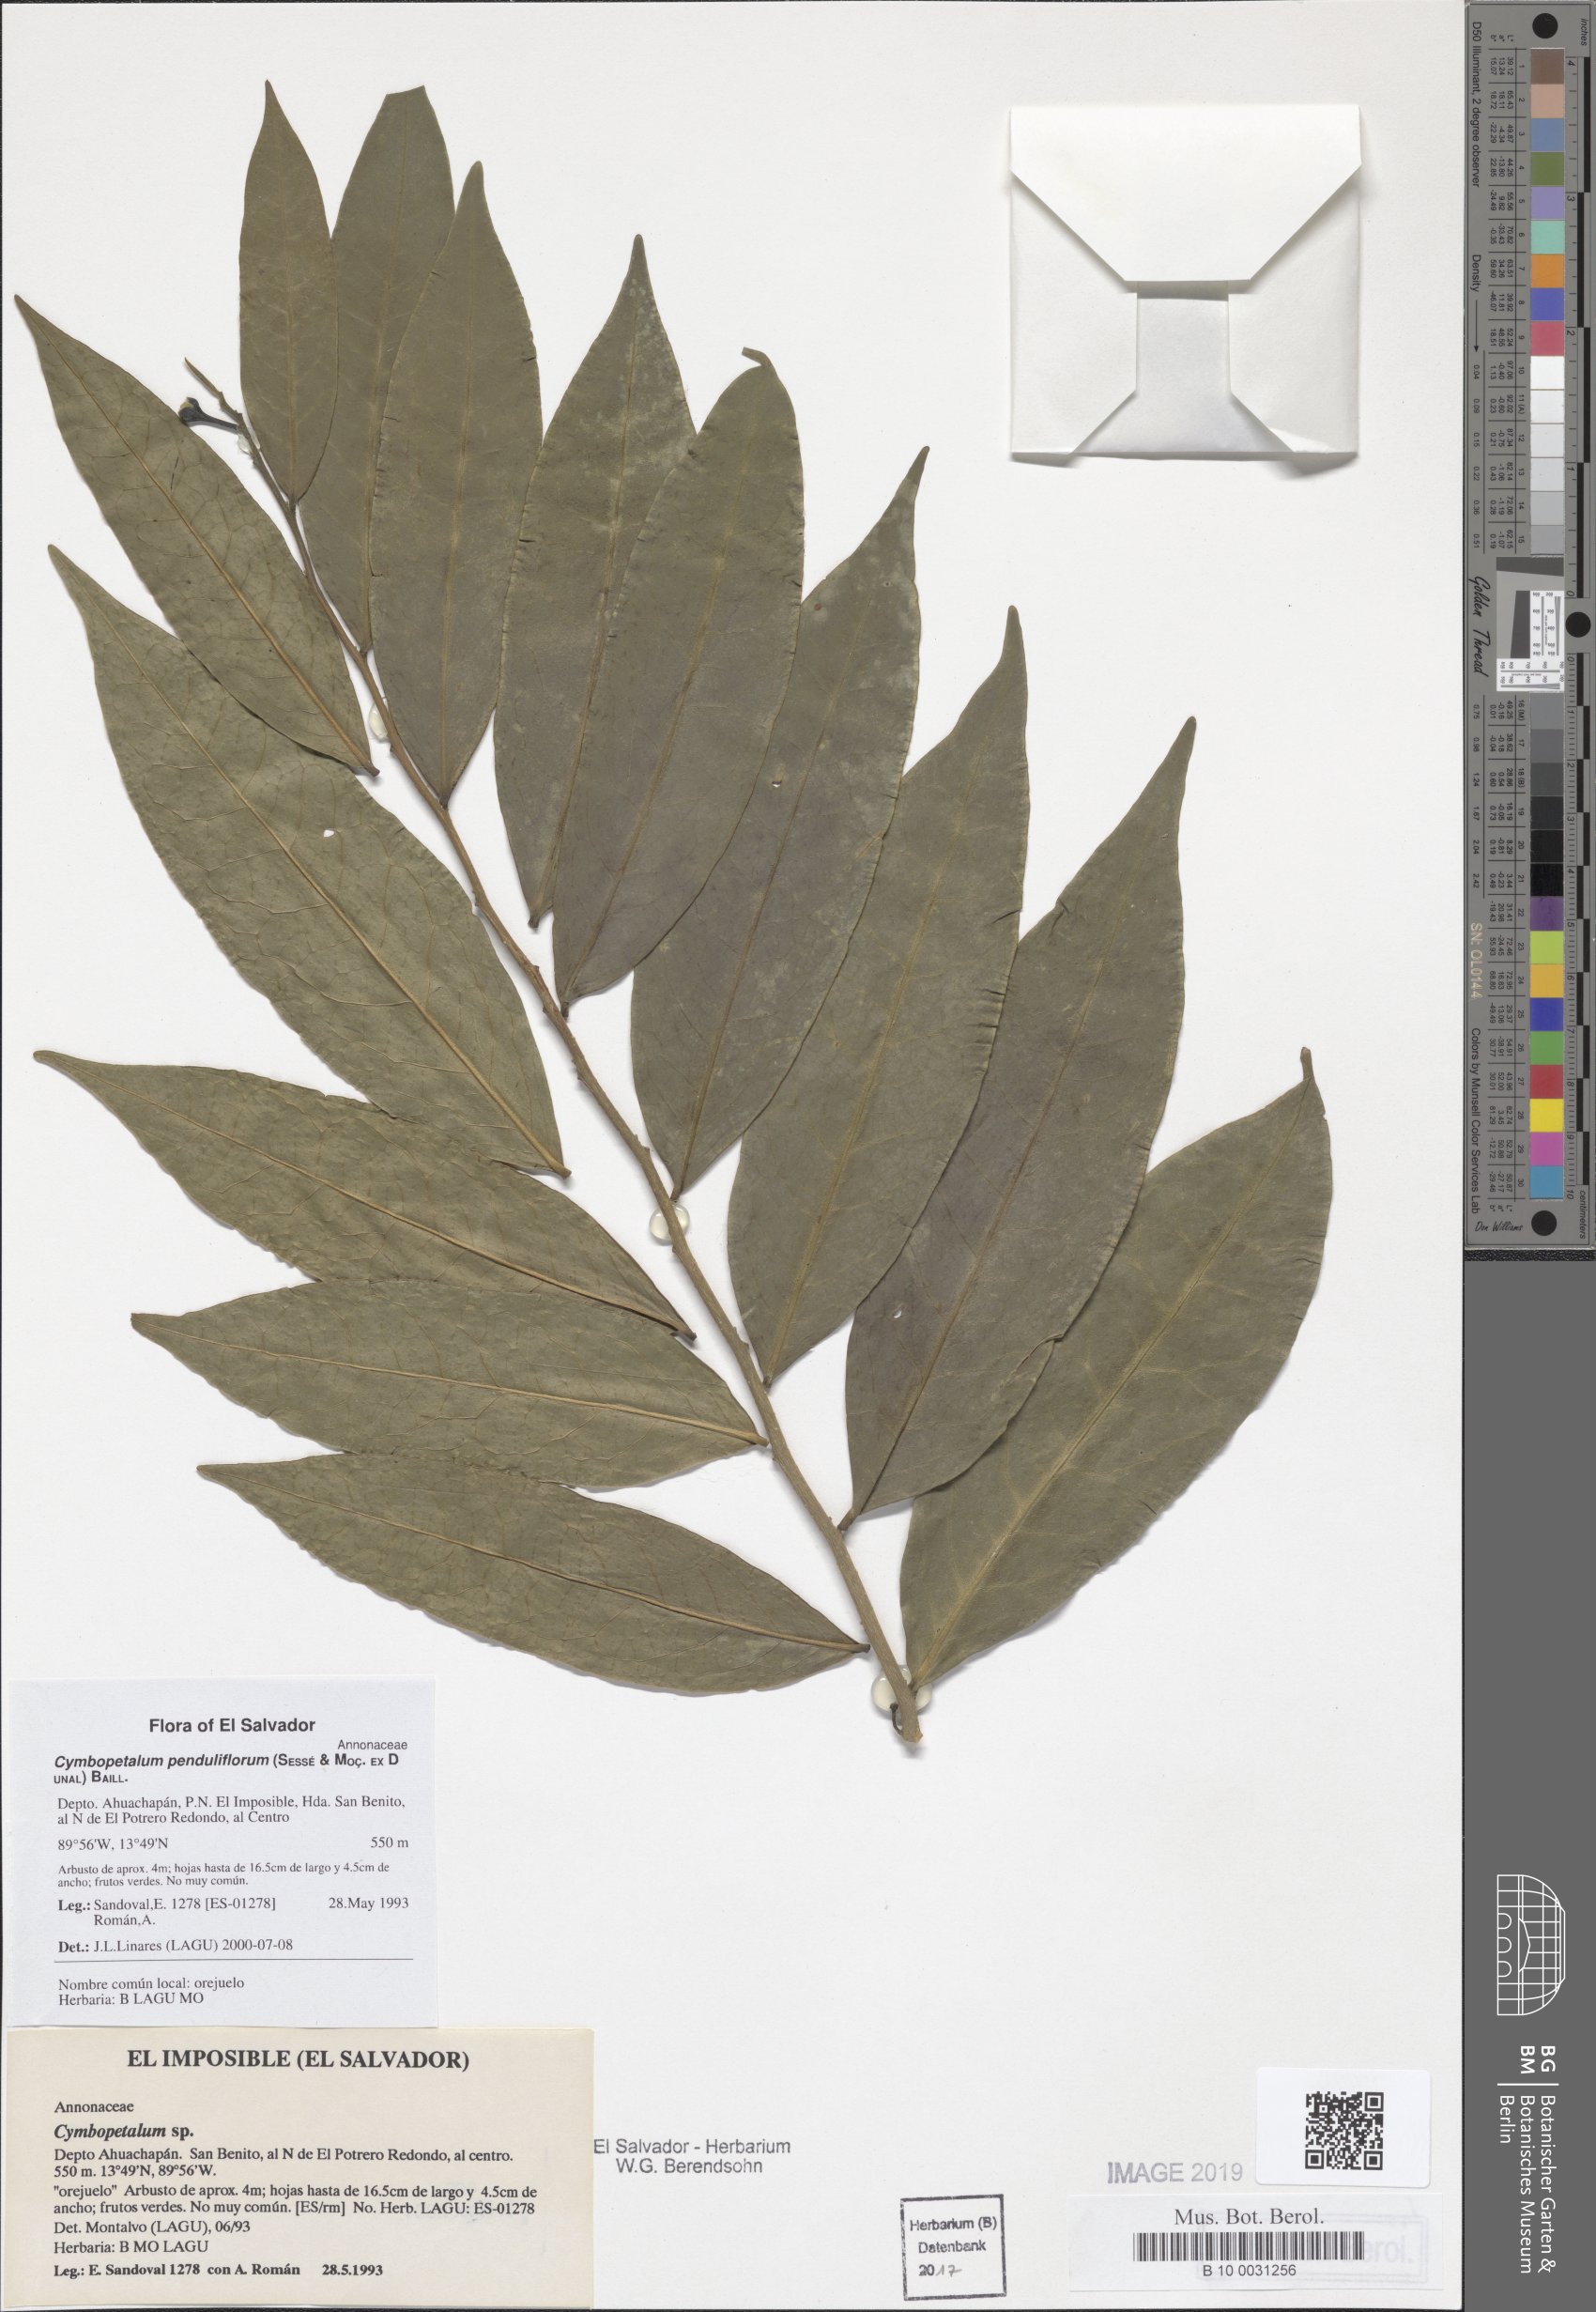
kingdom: Plantae
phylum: Tracheophyta
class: Magnoliopsida
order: Magnoliales
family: Annonaceae
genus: Cymbopetalum
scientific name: Cymbopetalum penduliflorum
